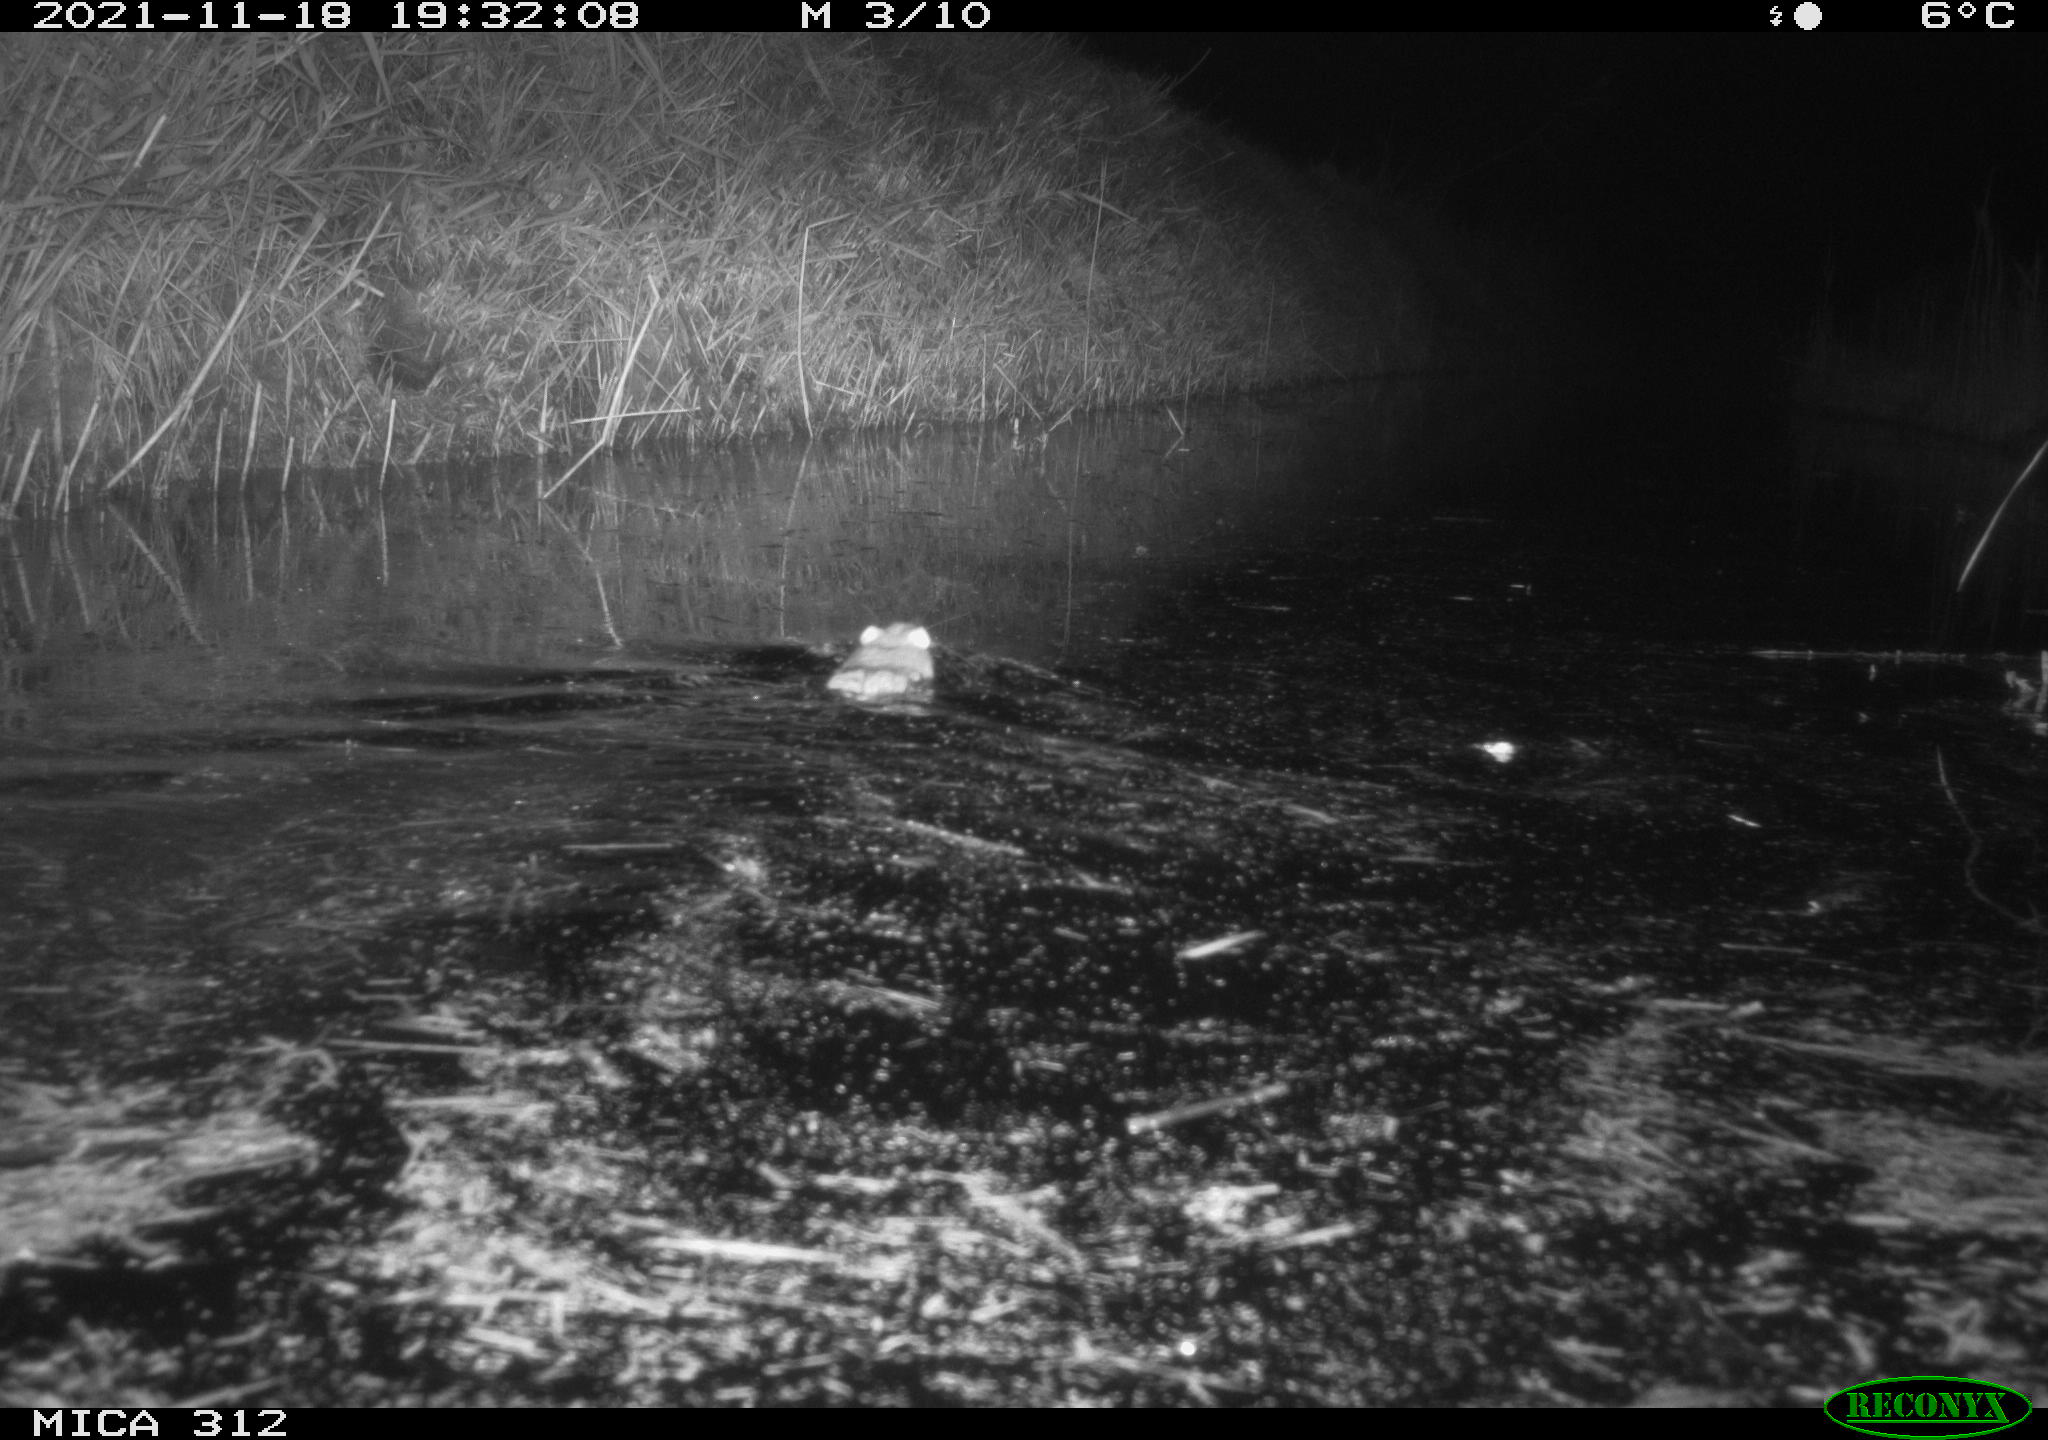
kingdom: Animalia
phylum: Chordata
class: Mammalia
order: Rodentia
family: Muridae
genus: Rattus
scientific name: Rattus norvegicus
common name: Brown rat
